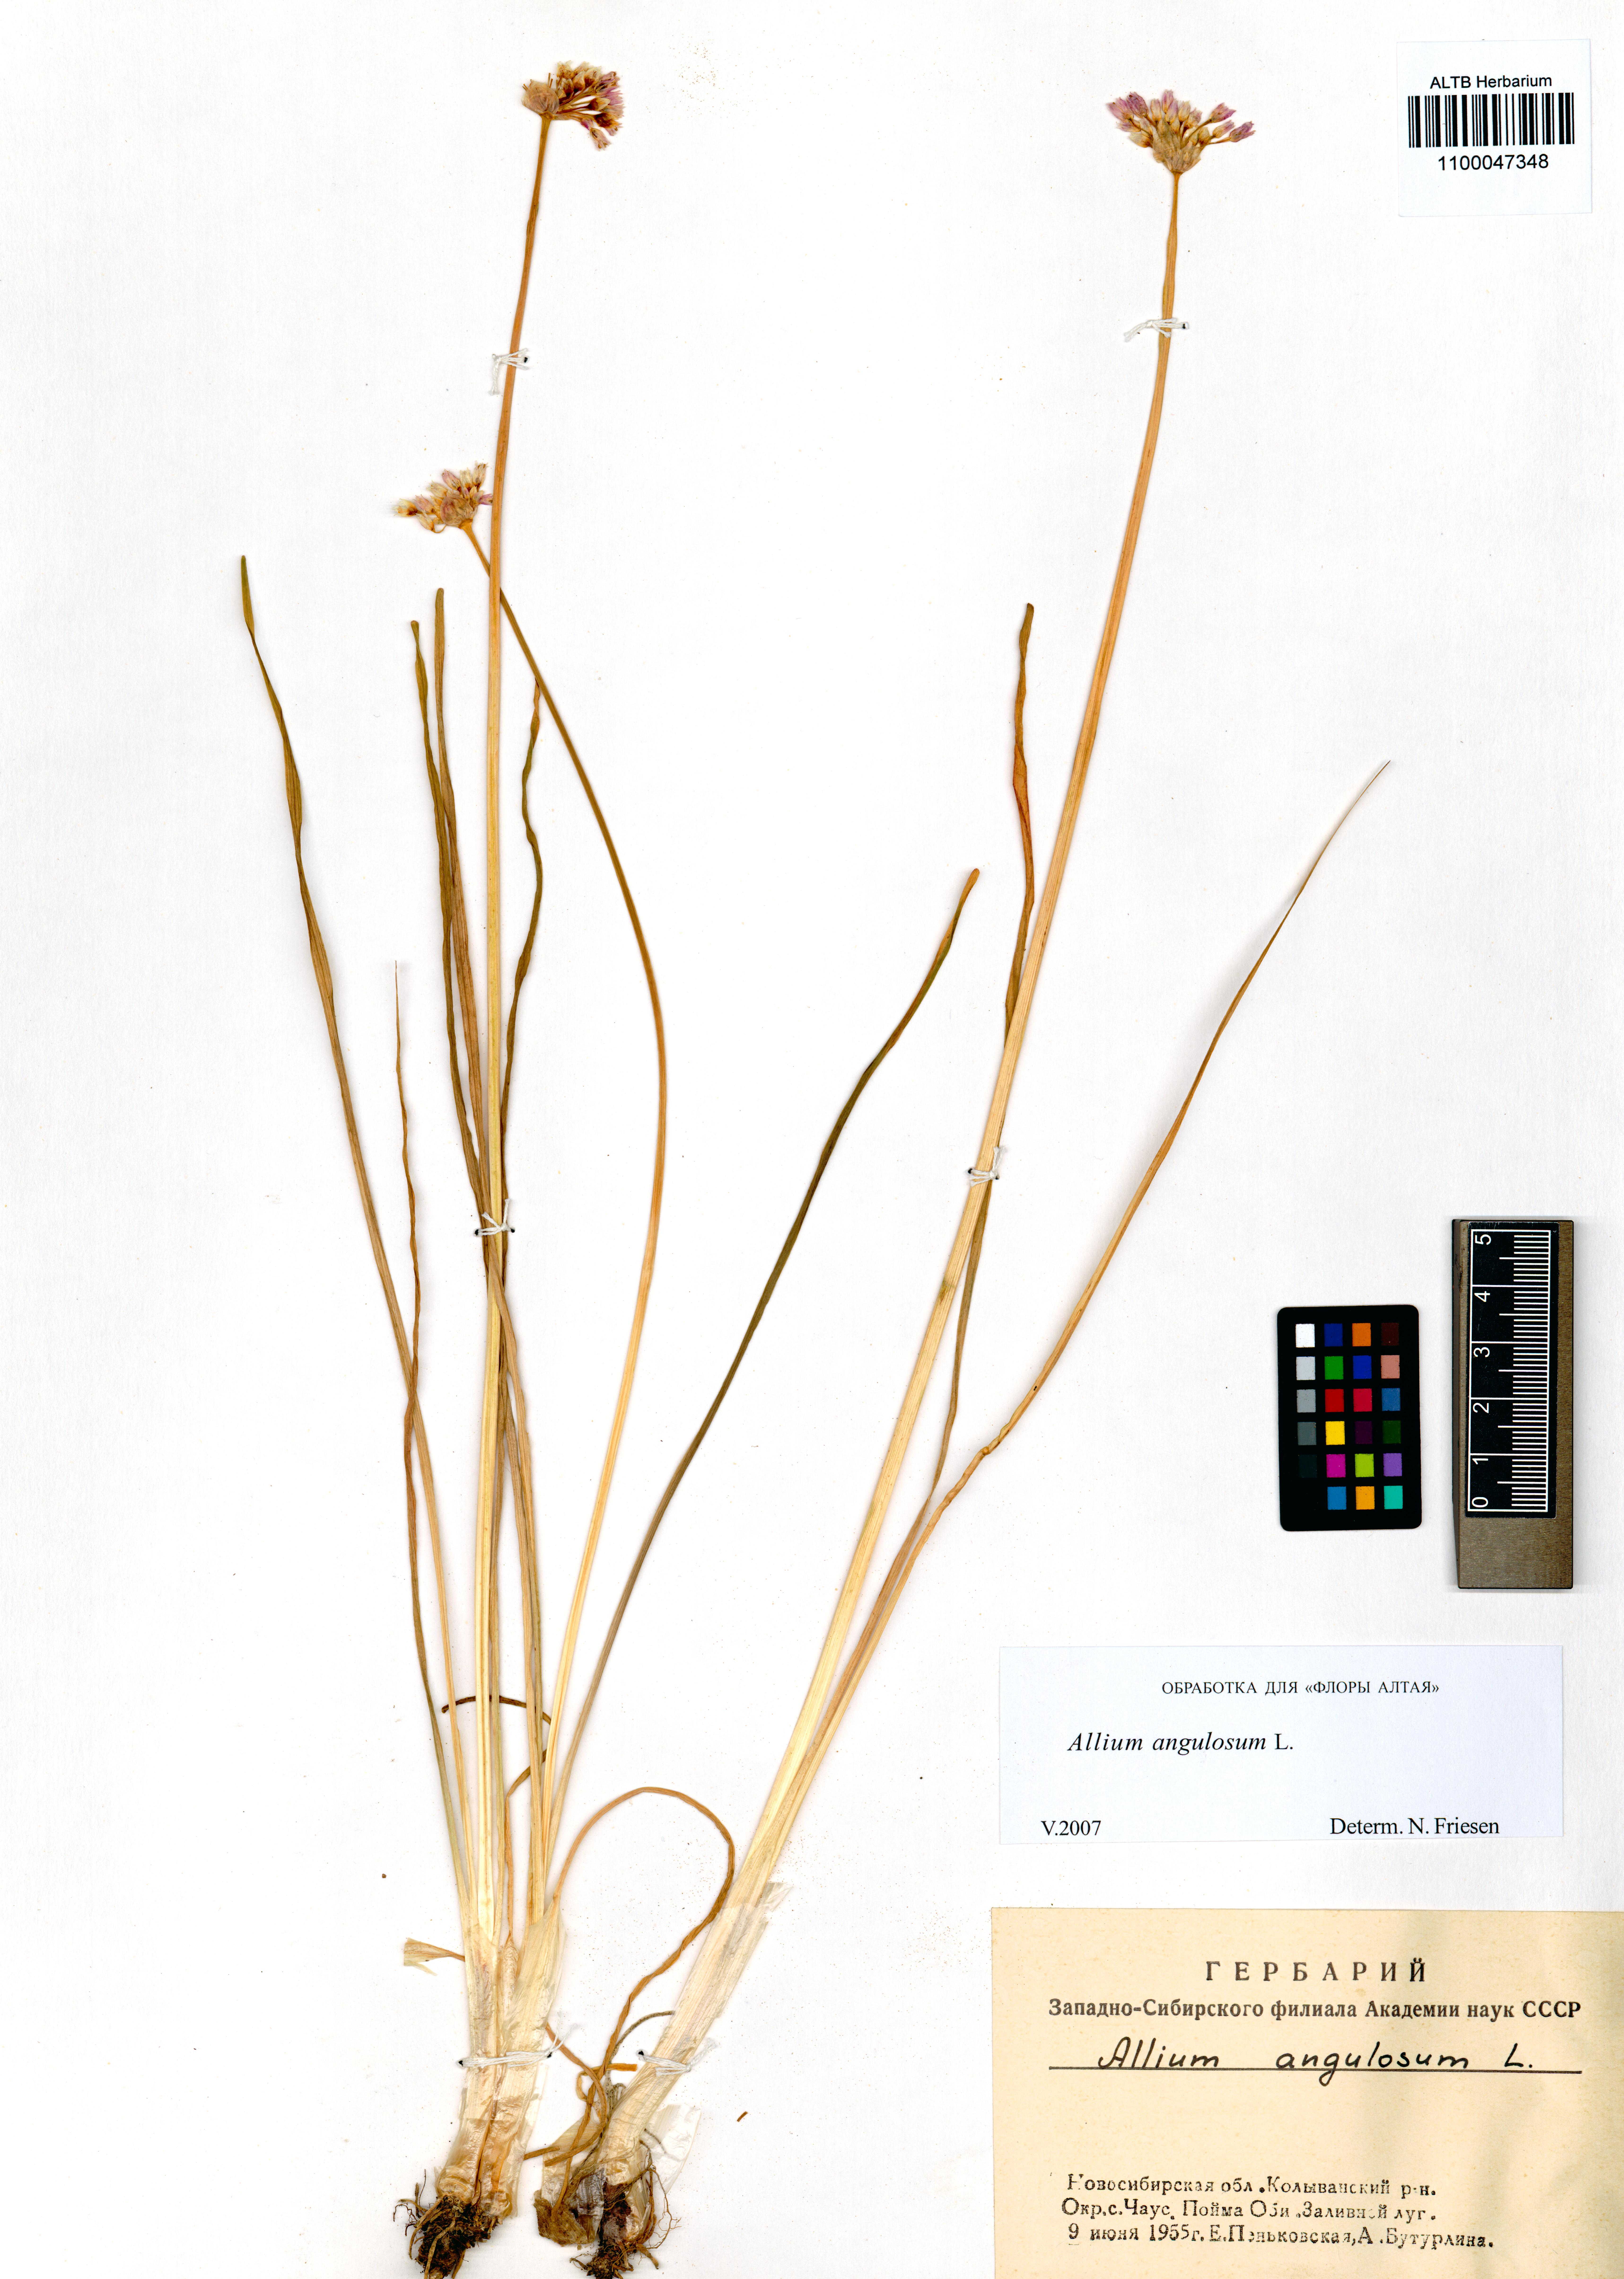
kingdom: Plantae
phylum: Tracheophyta
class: Liliopsida
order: Asparagales
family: Amaryllidaceae
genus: Allium
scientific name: Allium angulosum
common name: Mouse garlic
